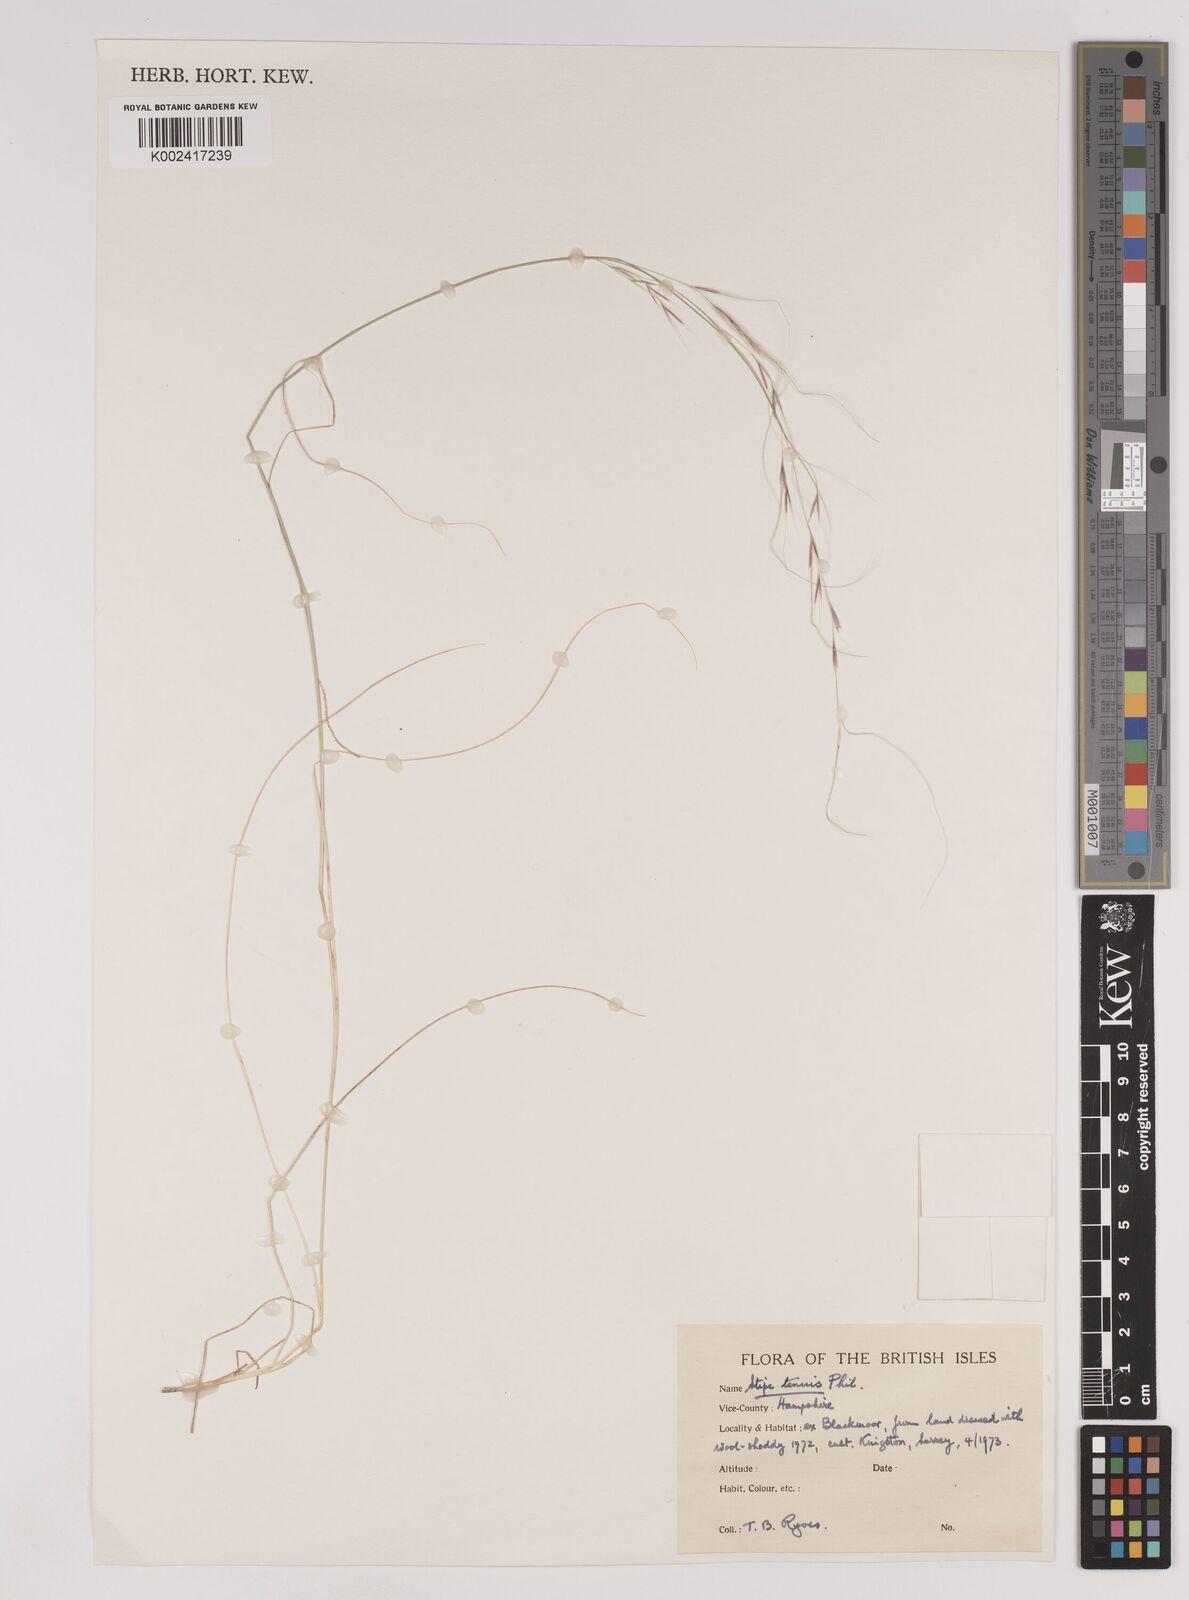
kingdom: Plantae
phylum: Tracheophyta
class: Liliopsida
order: Poales
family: Poaceae
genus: Nassella
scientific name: Nassella tenuis
